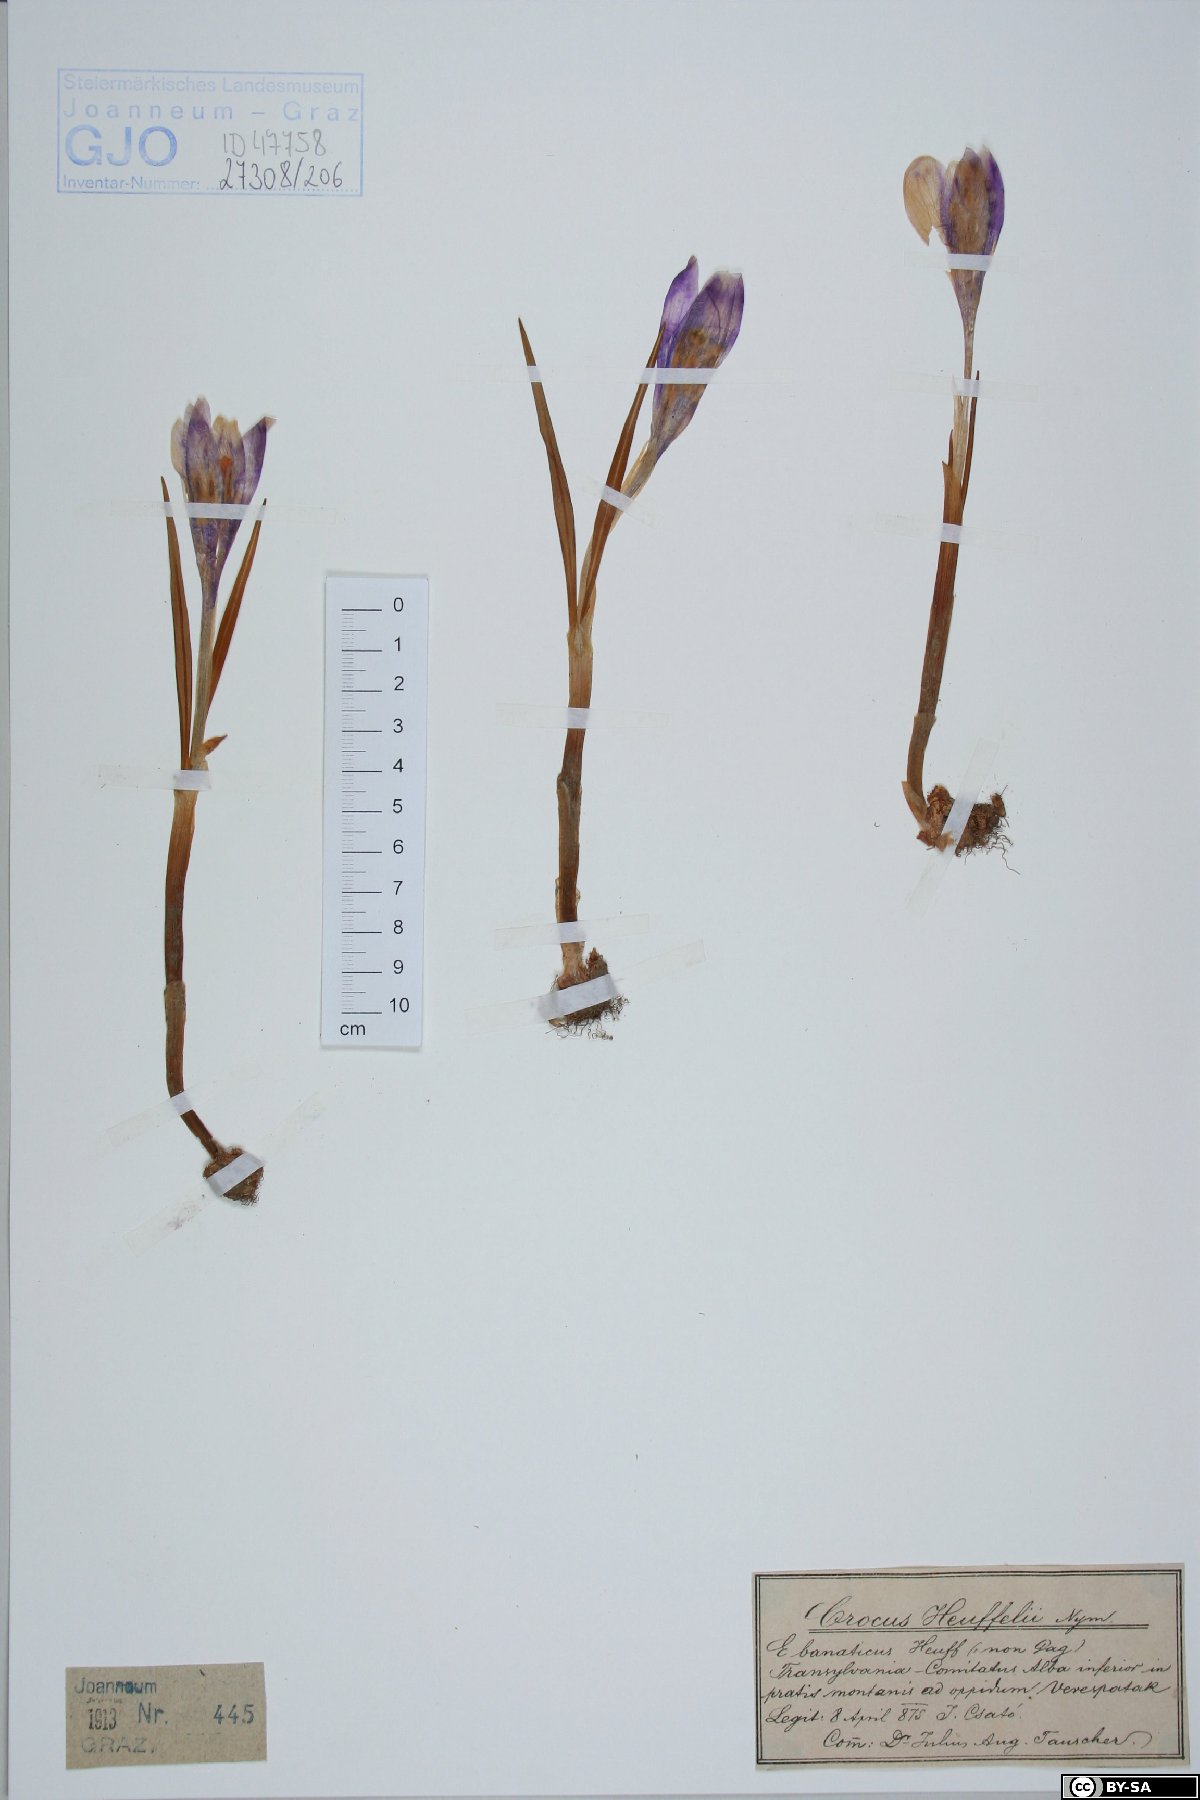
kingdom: Plantae
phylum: Tracheophyta
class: Liliopsida
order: Asparagales
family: Iridaceae
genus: Crocus
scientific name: Crocus heuffelianus
